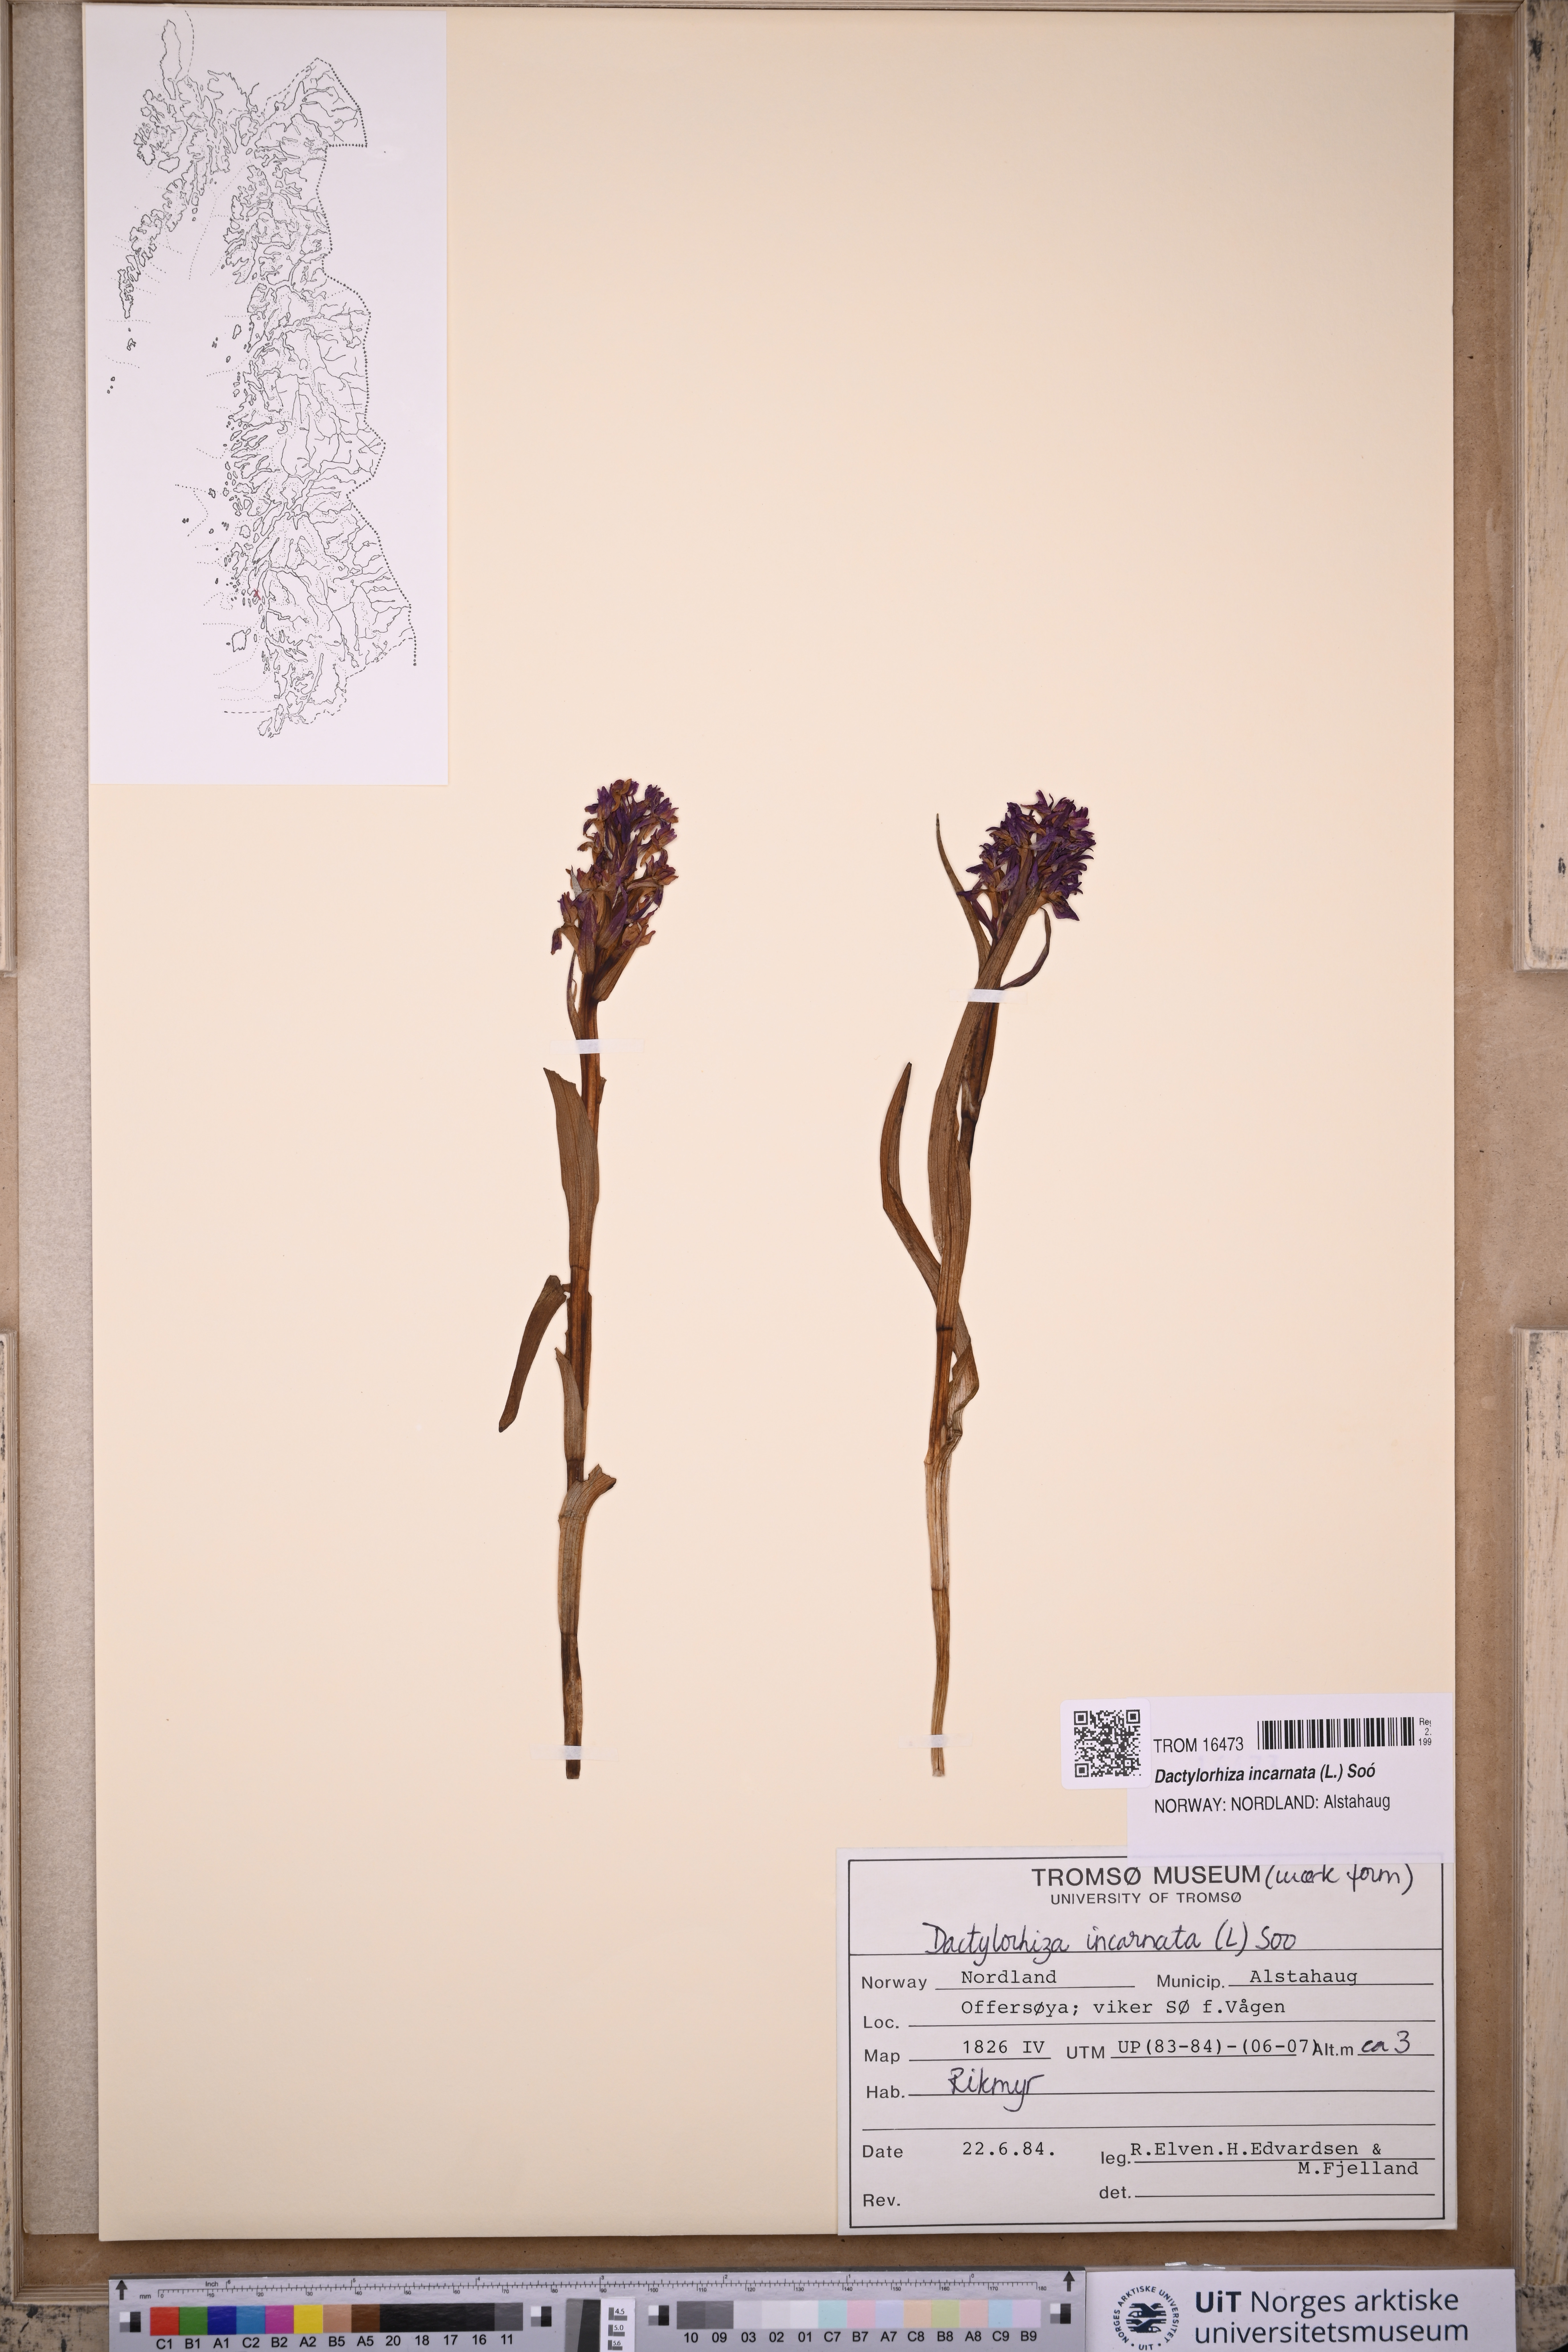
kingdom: Plantae
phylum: Tracheophyta
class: Liliopsida
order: Asparagales
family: Orchidaceae
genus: Dactylorhiza
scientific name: Dactylorhiza incarnata
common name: Early marsh-orchid
